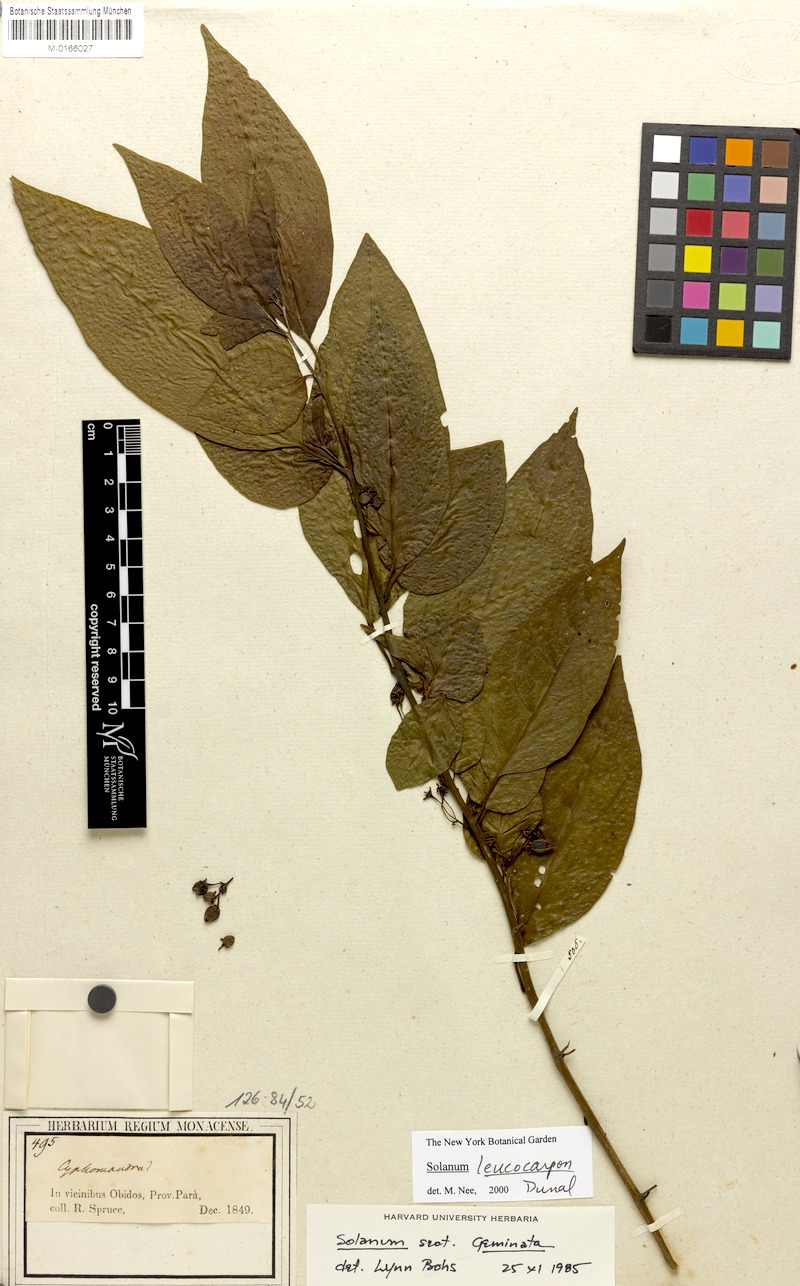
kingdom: Plantae
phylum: Tracheophyta
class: Magnoliopsida
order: Solanales
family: Solanaceae
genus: Solanum
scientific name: Solanum leucocarpon
